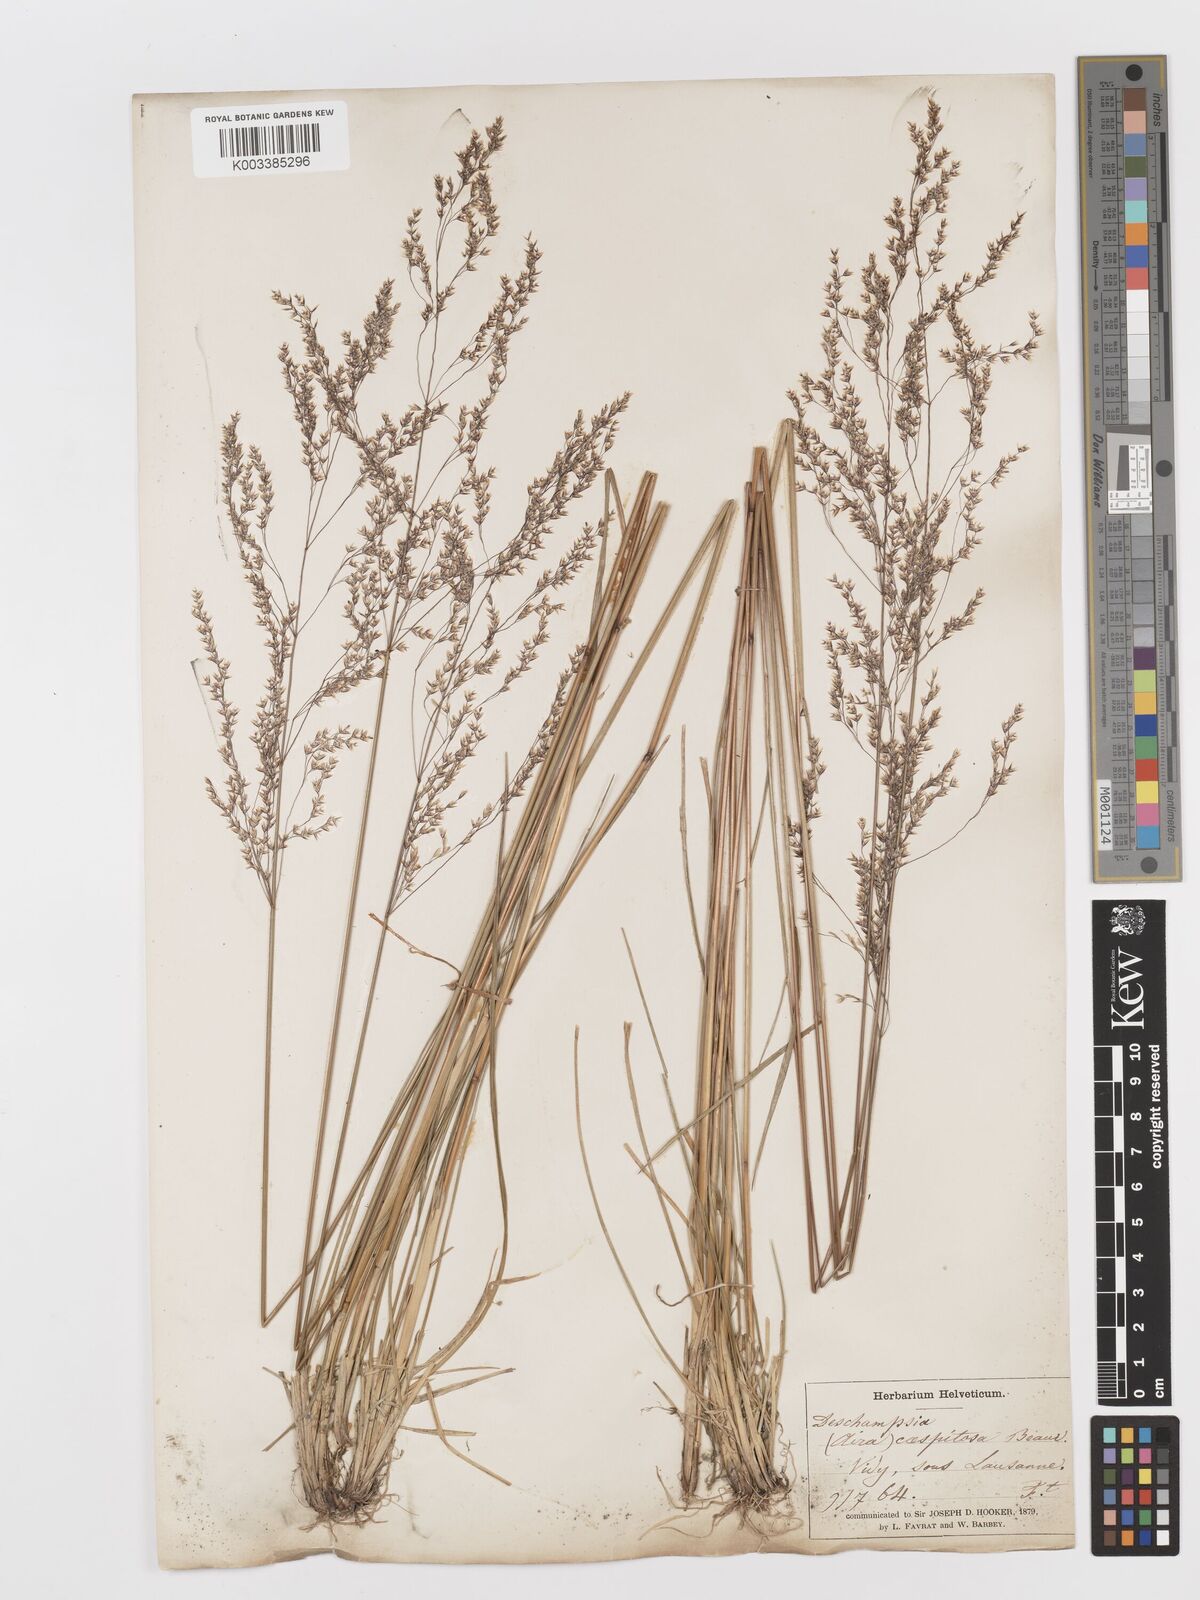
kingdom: Plantae
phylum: Tracheophyta
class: Liliopsida
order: Poales
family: Poaceae
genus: Deschampsia
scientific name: Deschampsia cespitosa
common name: Tufted hair-grass
